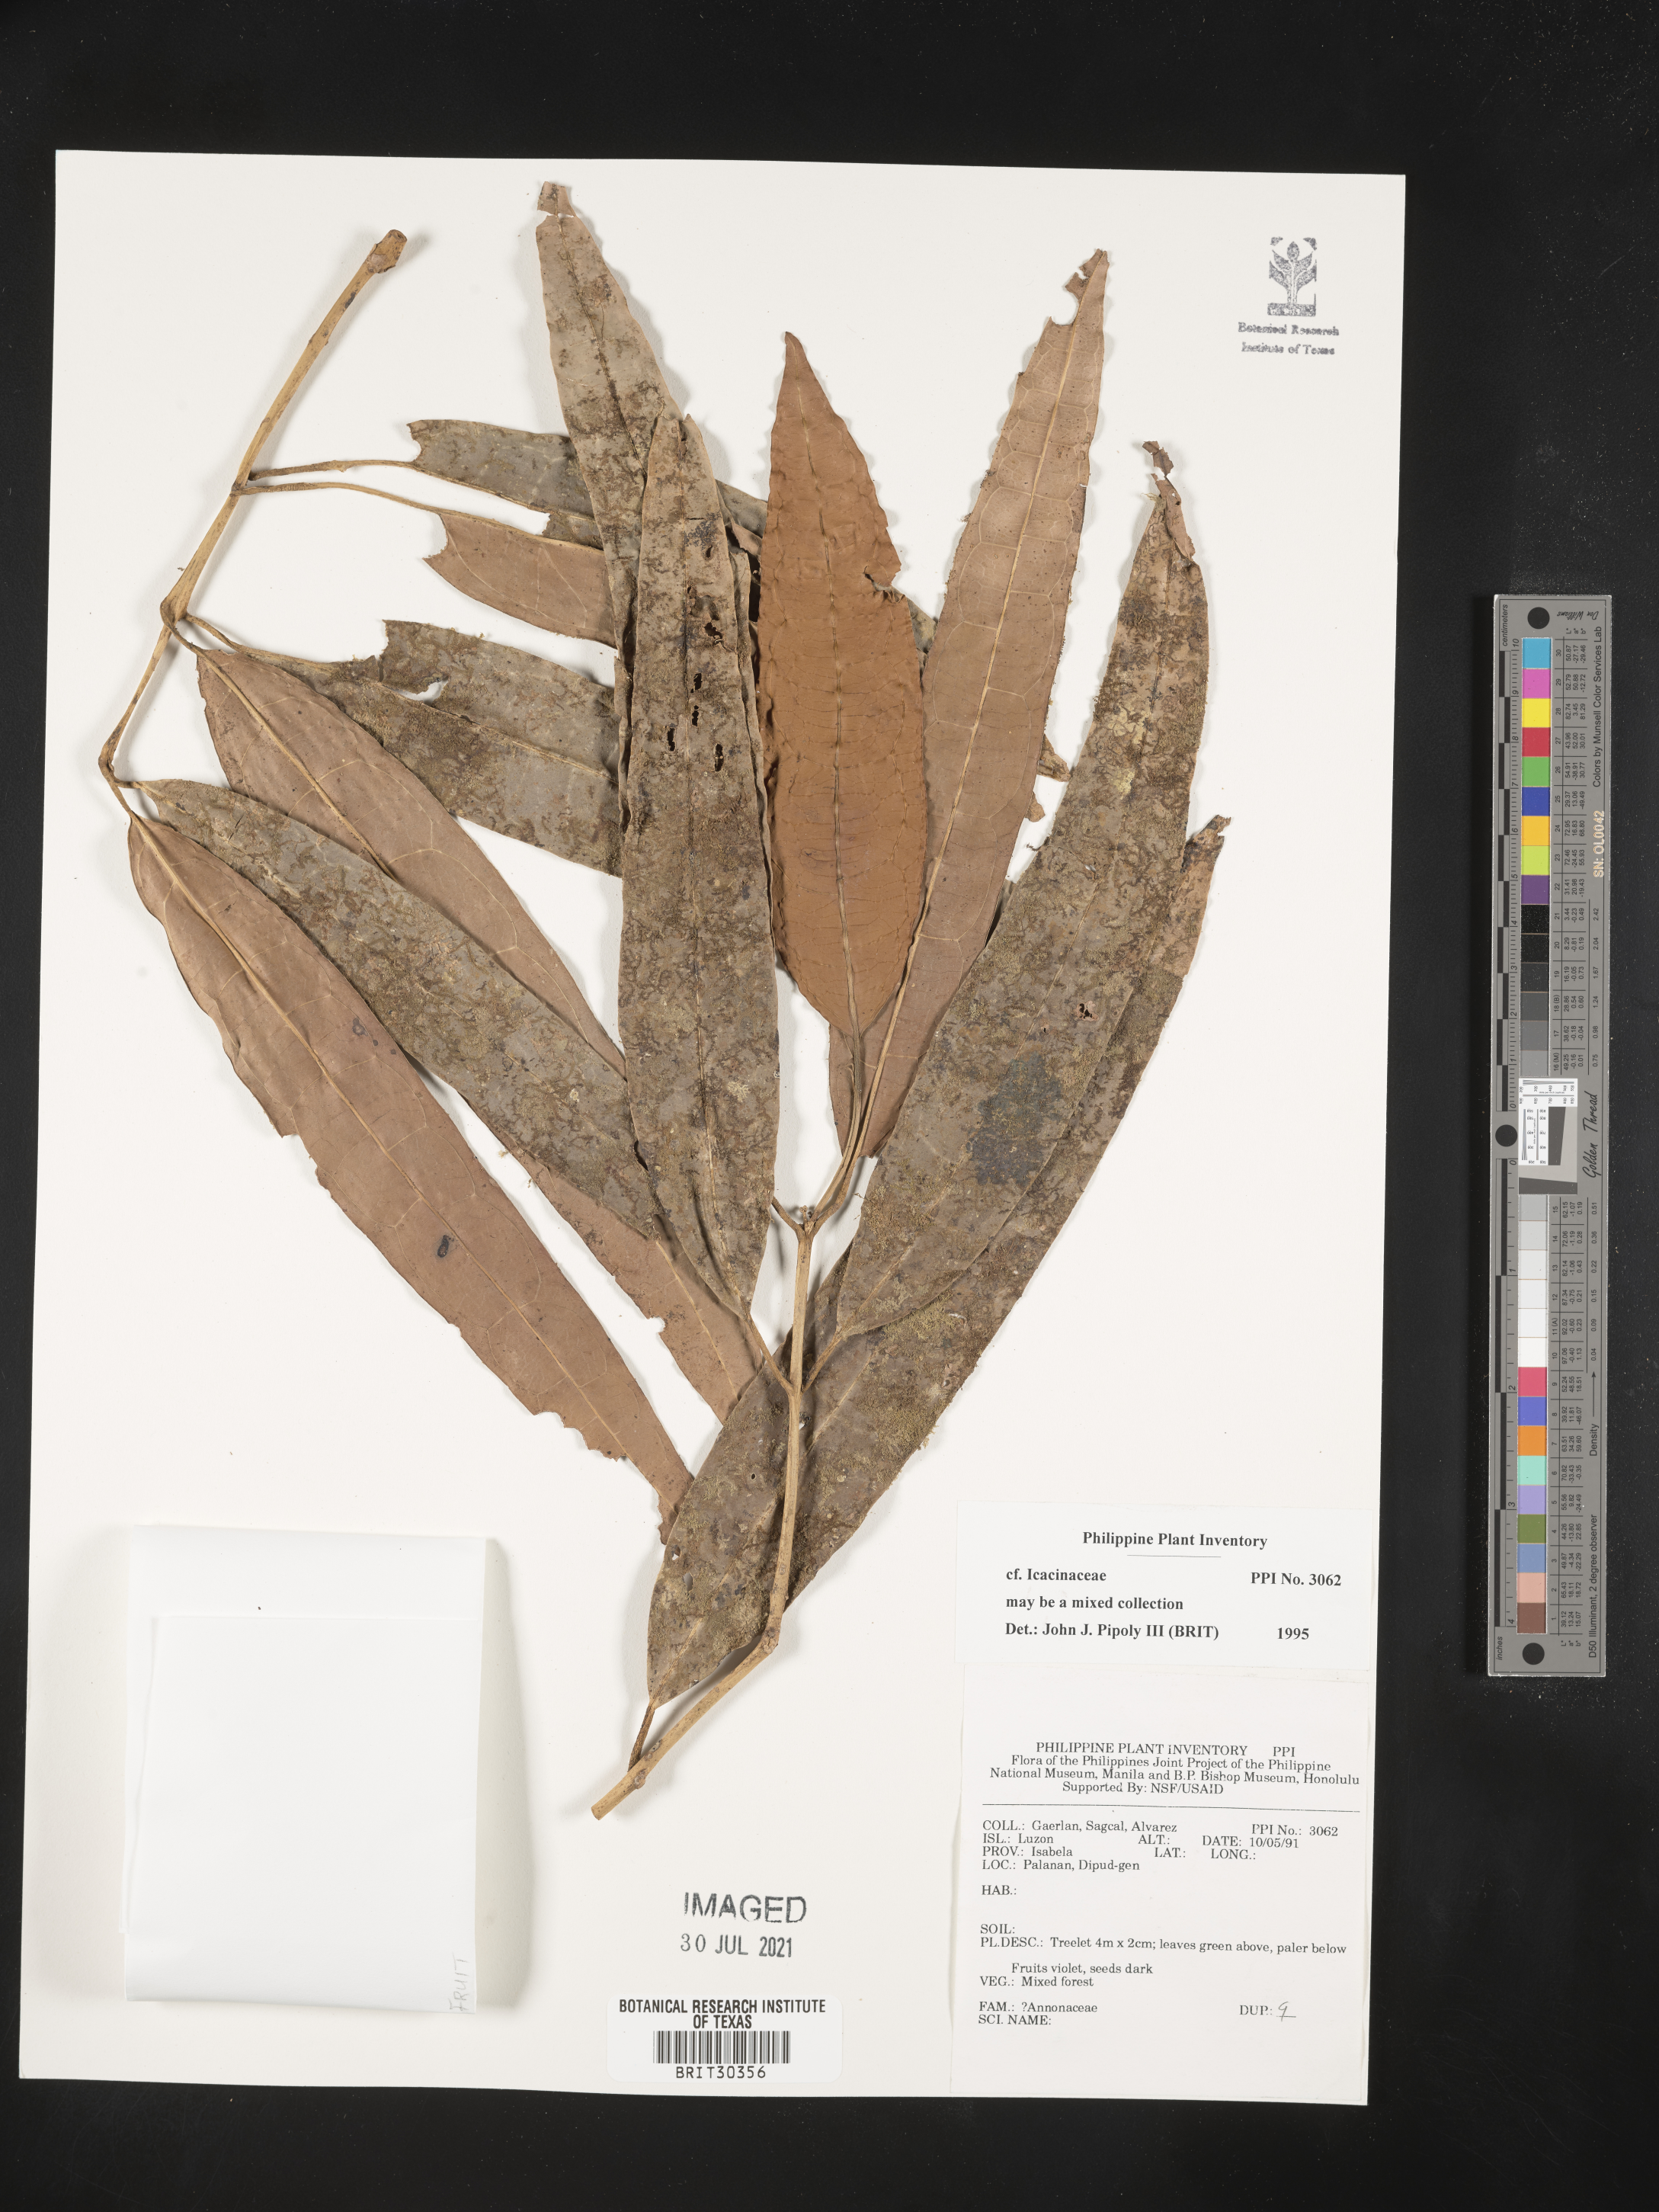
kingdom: Plantae
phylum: Tracheophyta
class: Magnoliopsida
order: Icacinales
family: Icacinaceae
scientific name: Icacinaceae
